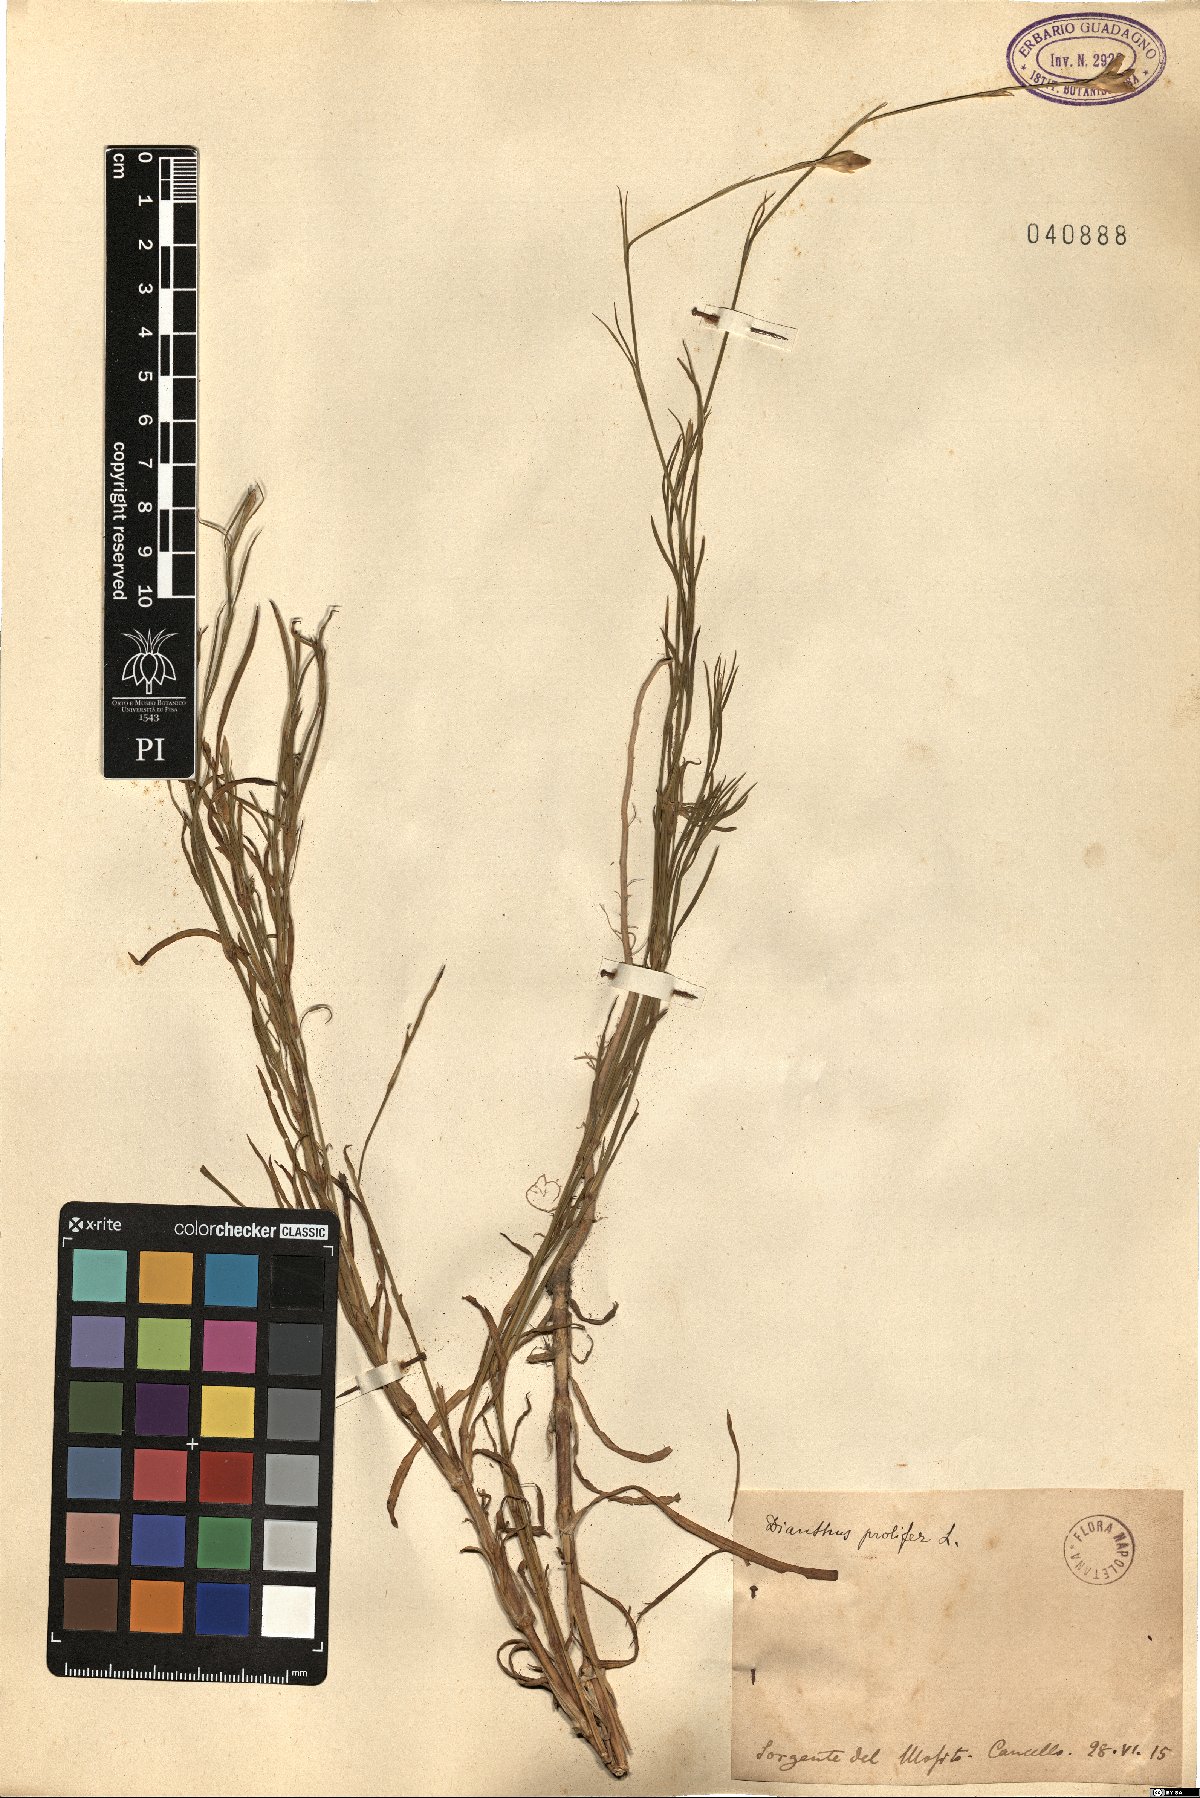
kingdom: Plantae
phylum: Tracheophyta
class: Magnoliopsida
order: Caryophyllales
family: Caryophyllaceae
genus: Petrorhagia
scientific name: Petrorhagia prolifera
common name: Proliferous pink
